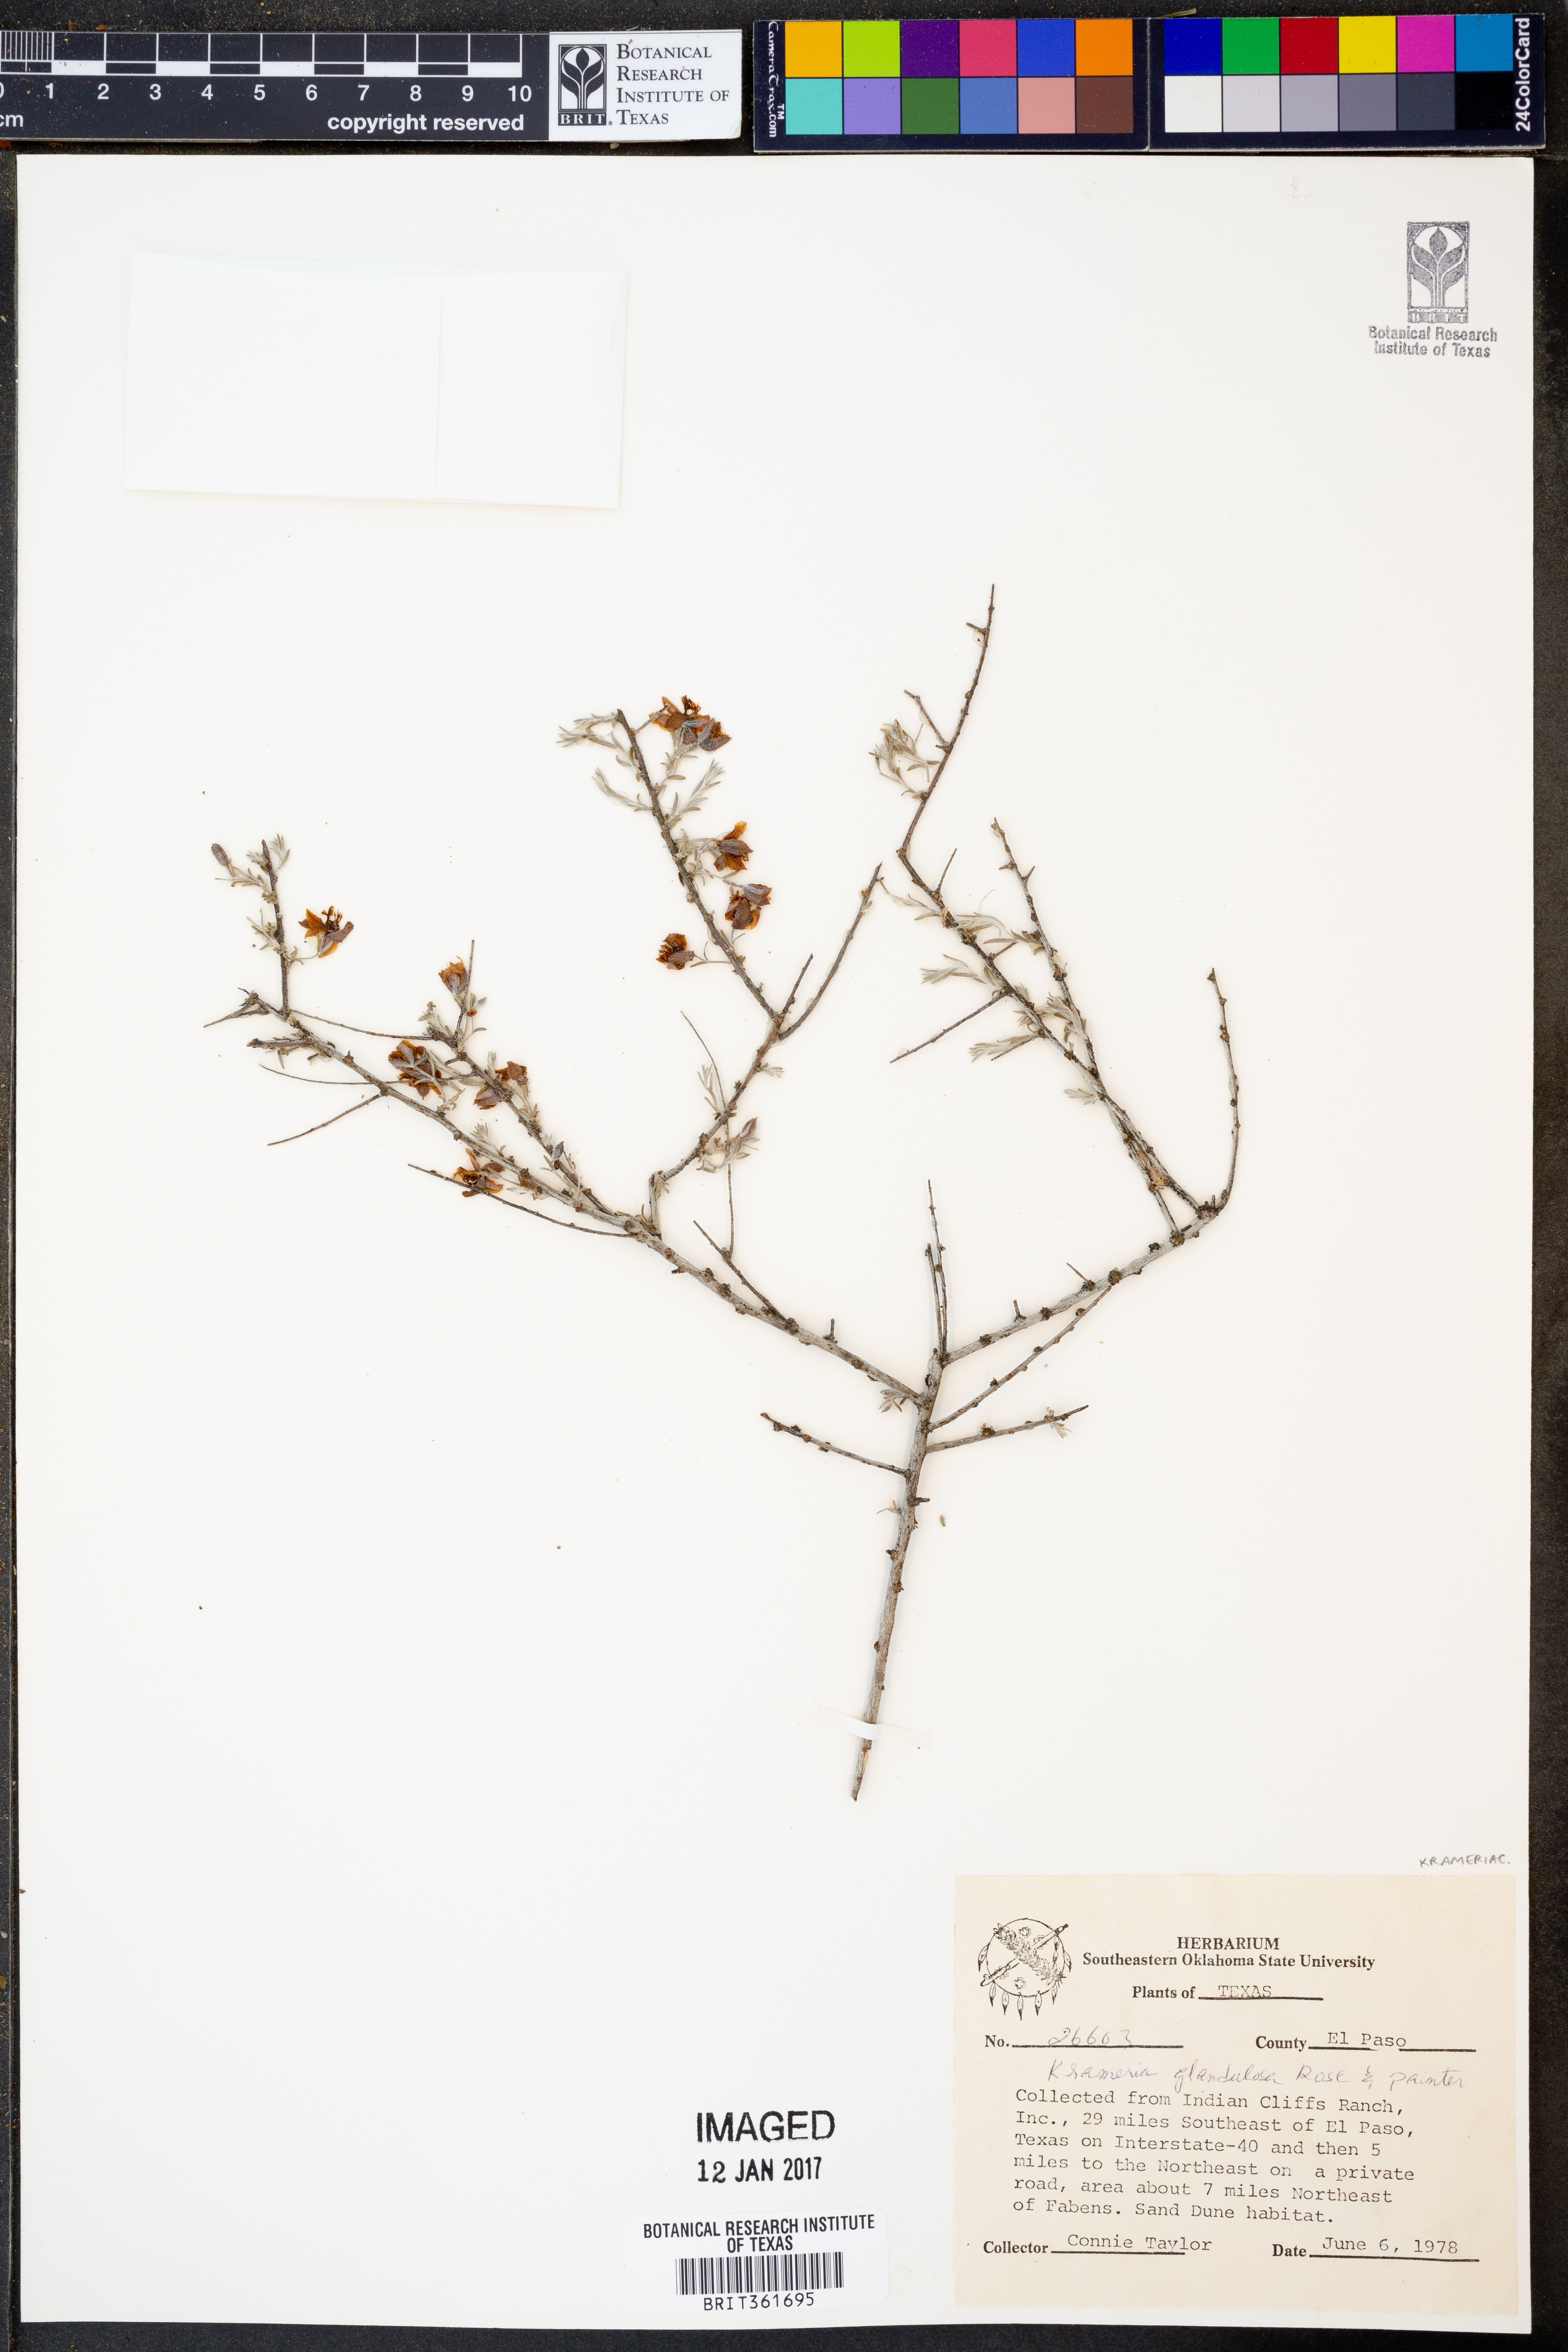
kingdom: Plantae
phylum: Tracheophyta
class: Magnoliopsida
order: Zygophyllales
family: Krameriaceae
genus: Krameria
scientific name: Krameria erecta
